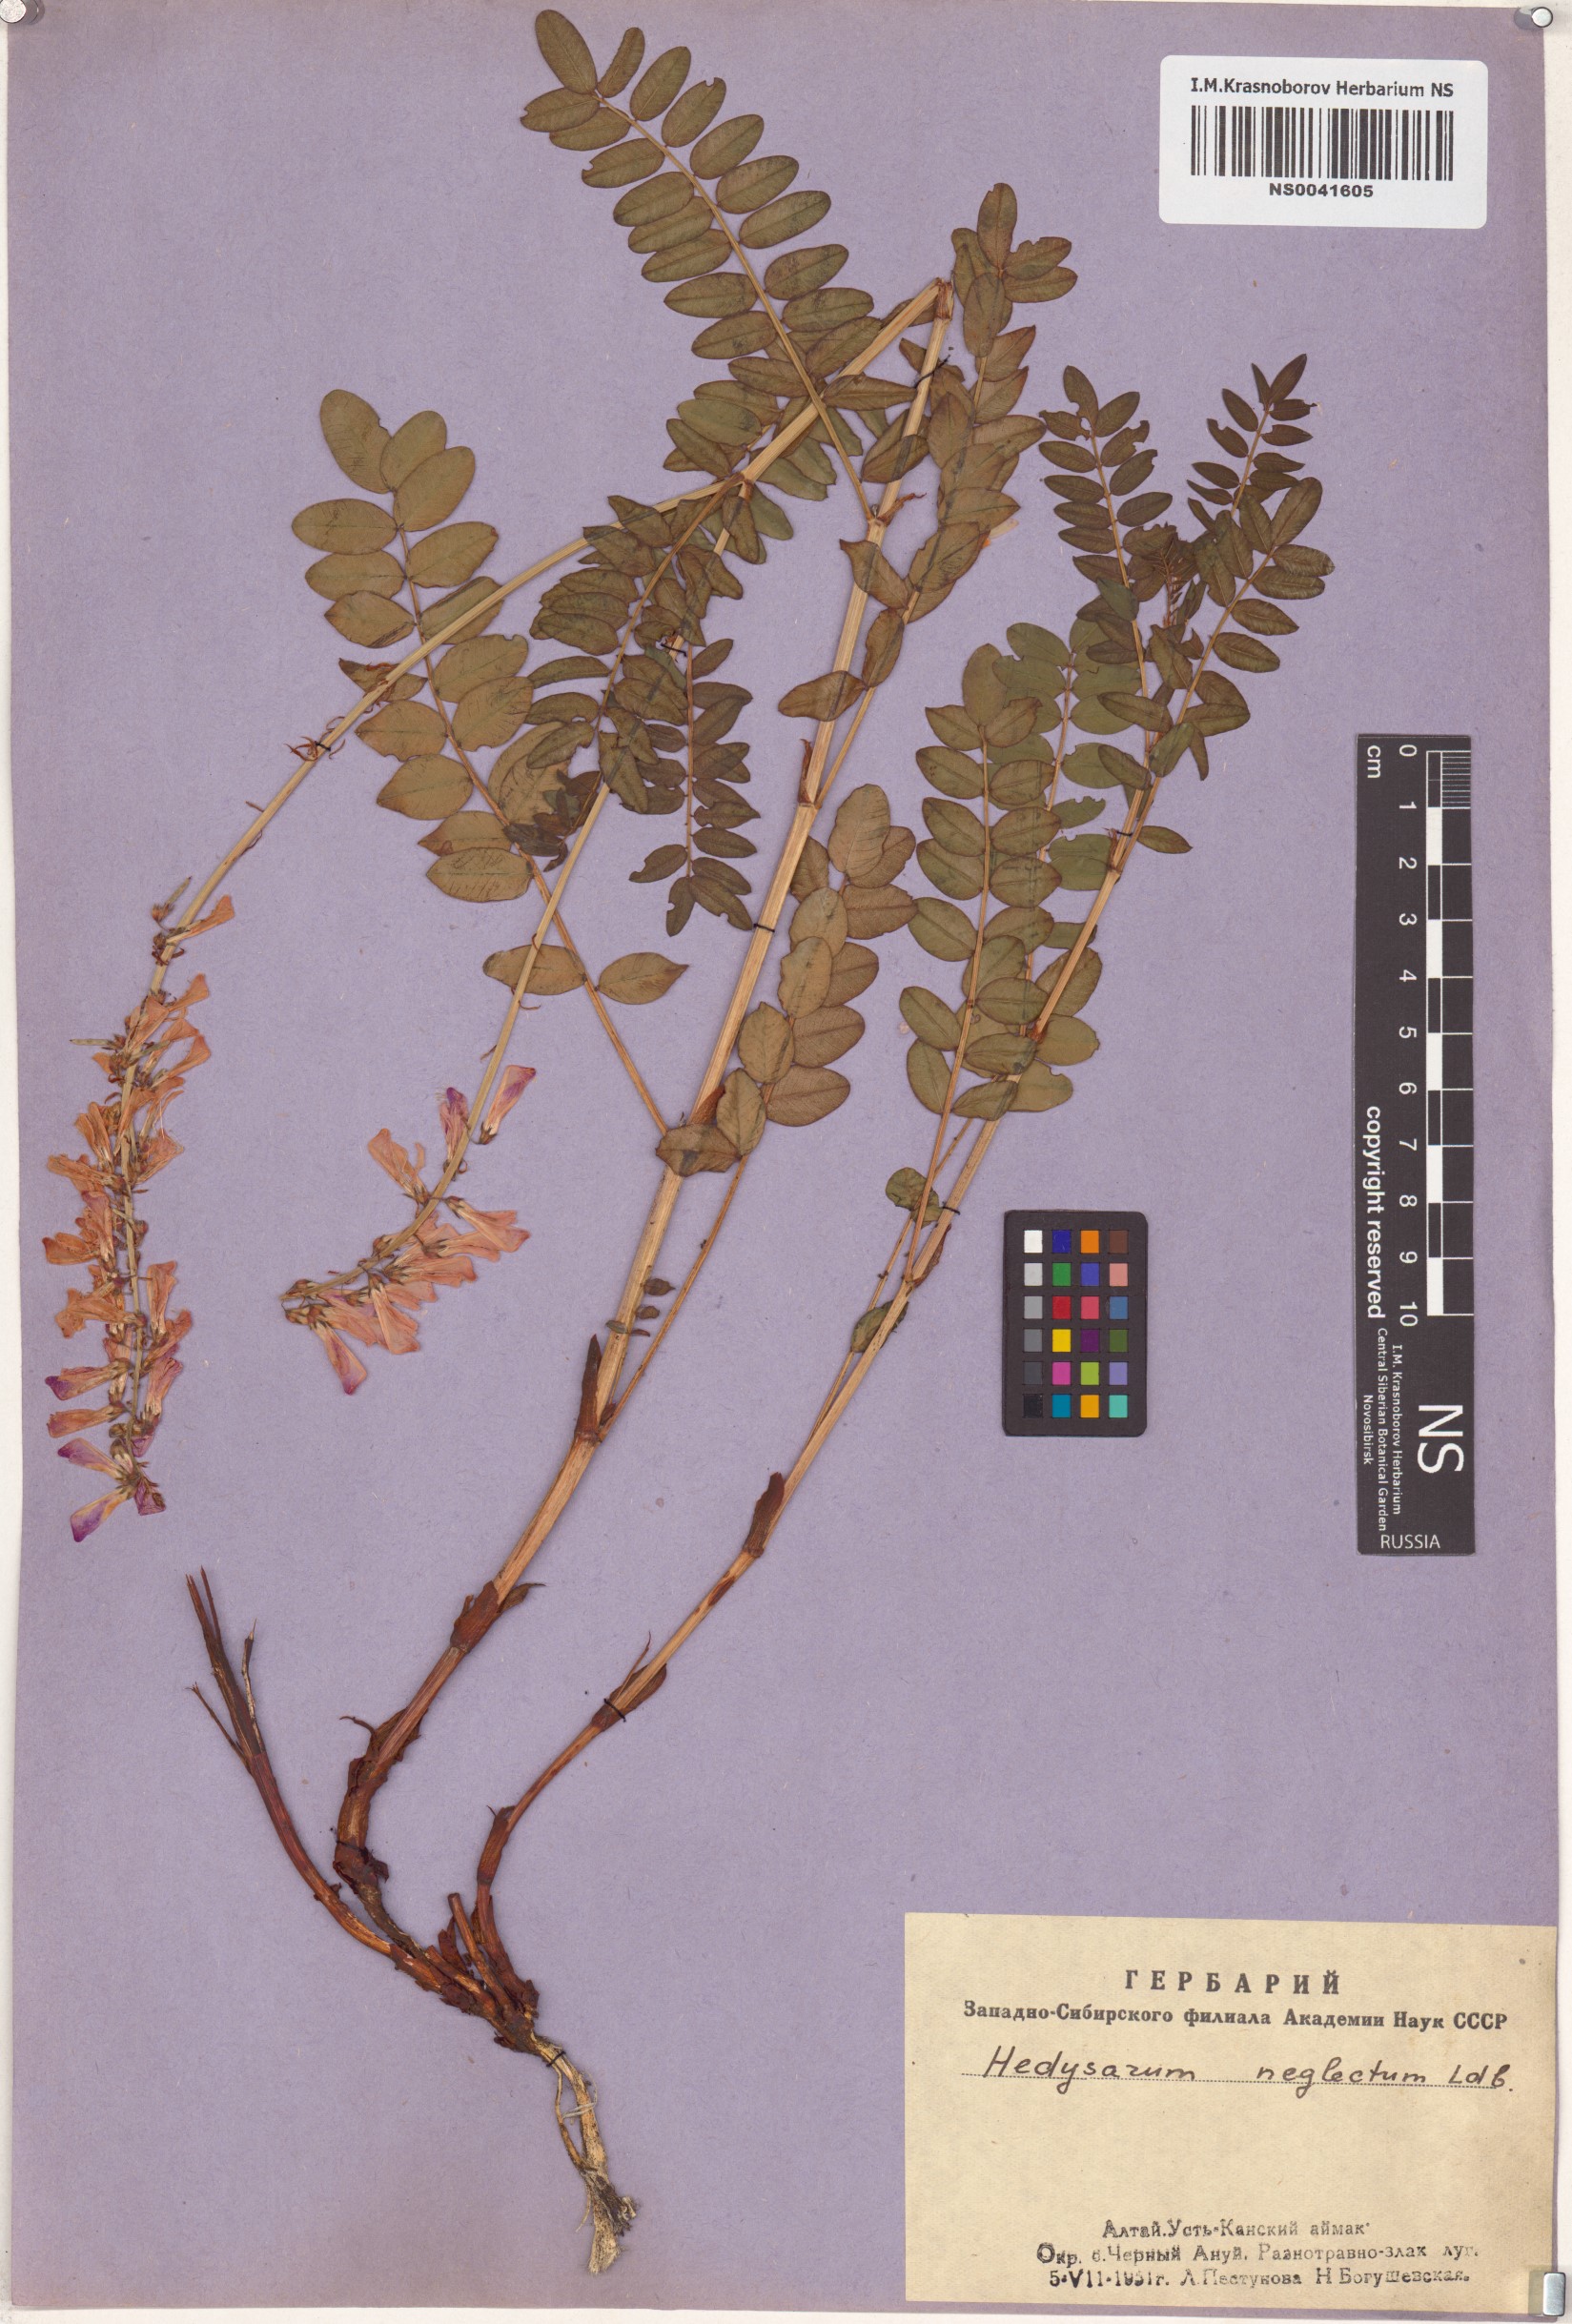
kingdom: Plantae
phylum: Tracheophyta
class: Magnoliopsida
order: Fabales
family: Fabaceae
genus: Hedysarum
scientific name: Hedysarum neglectum
